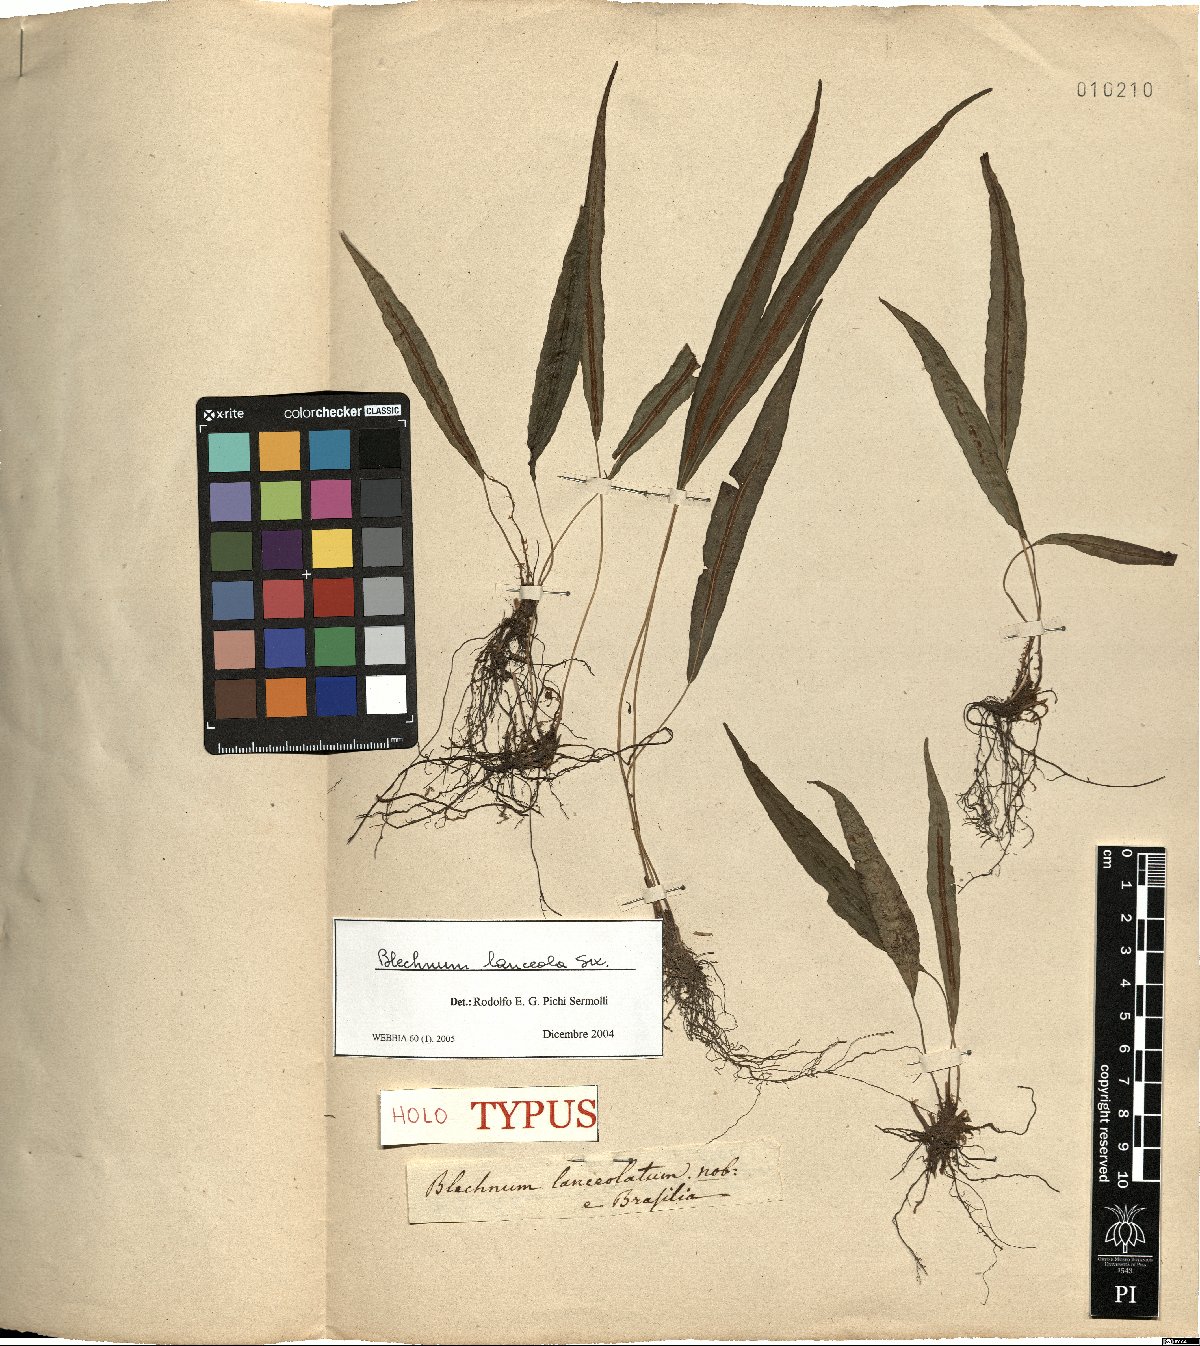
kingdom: Plantae
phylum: Tracheophyta
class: Polypodiopsida
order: Polypodiales
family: Blechnaceae
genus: Blechnum
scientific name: Blechnum lanceola
